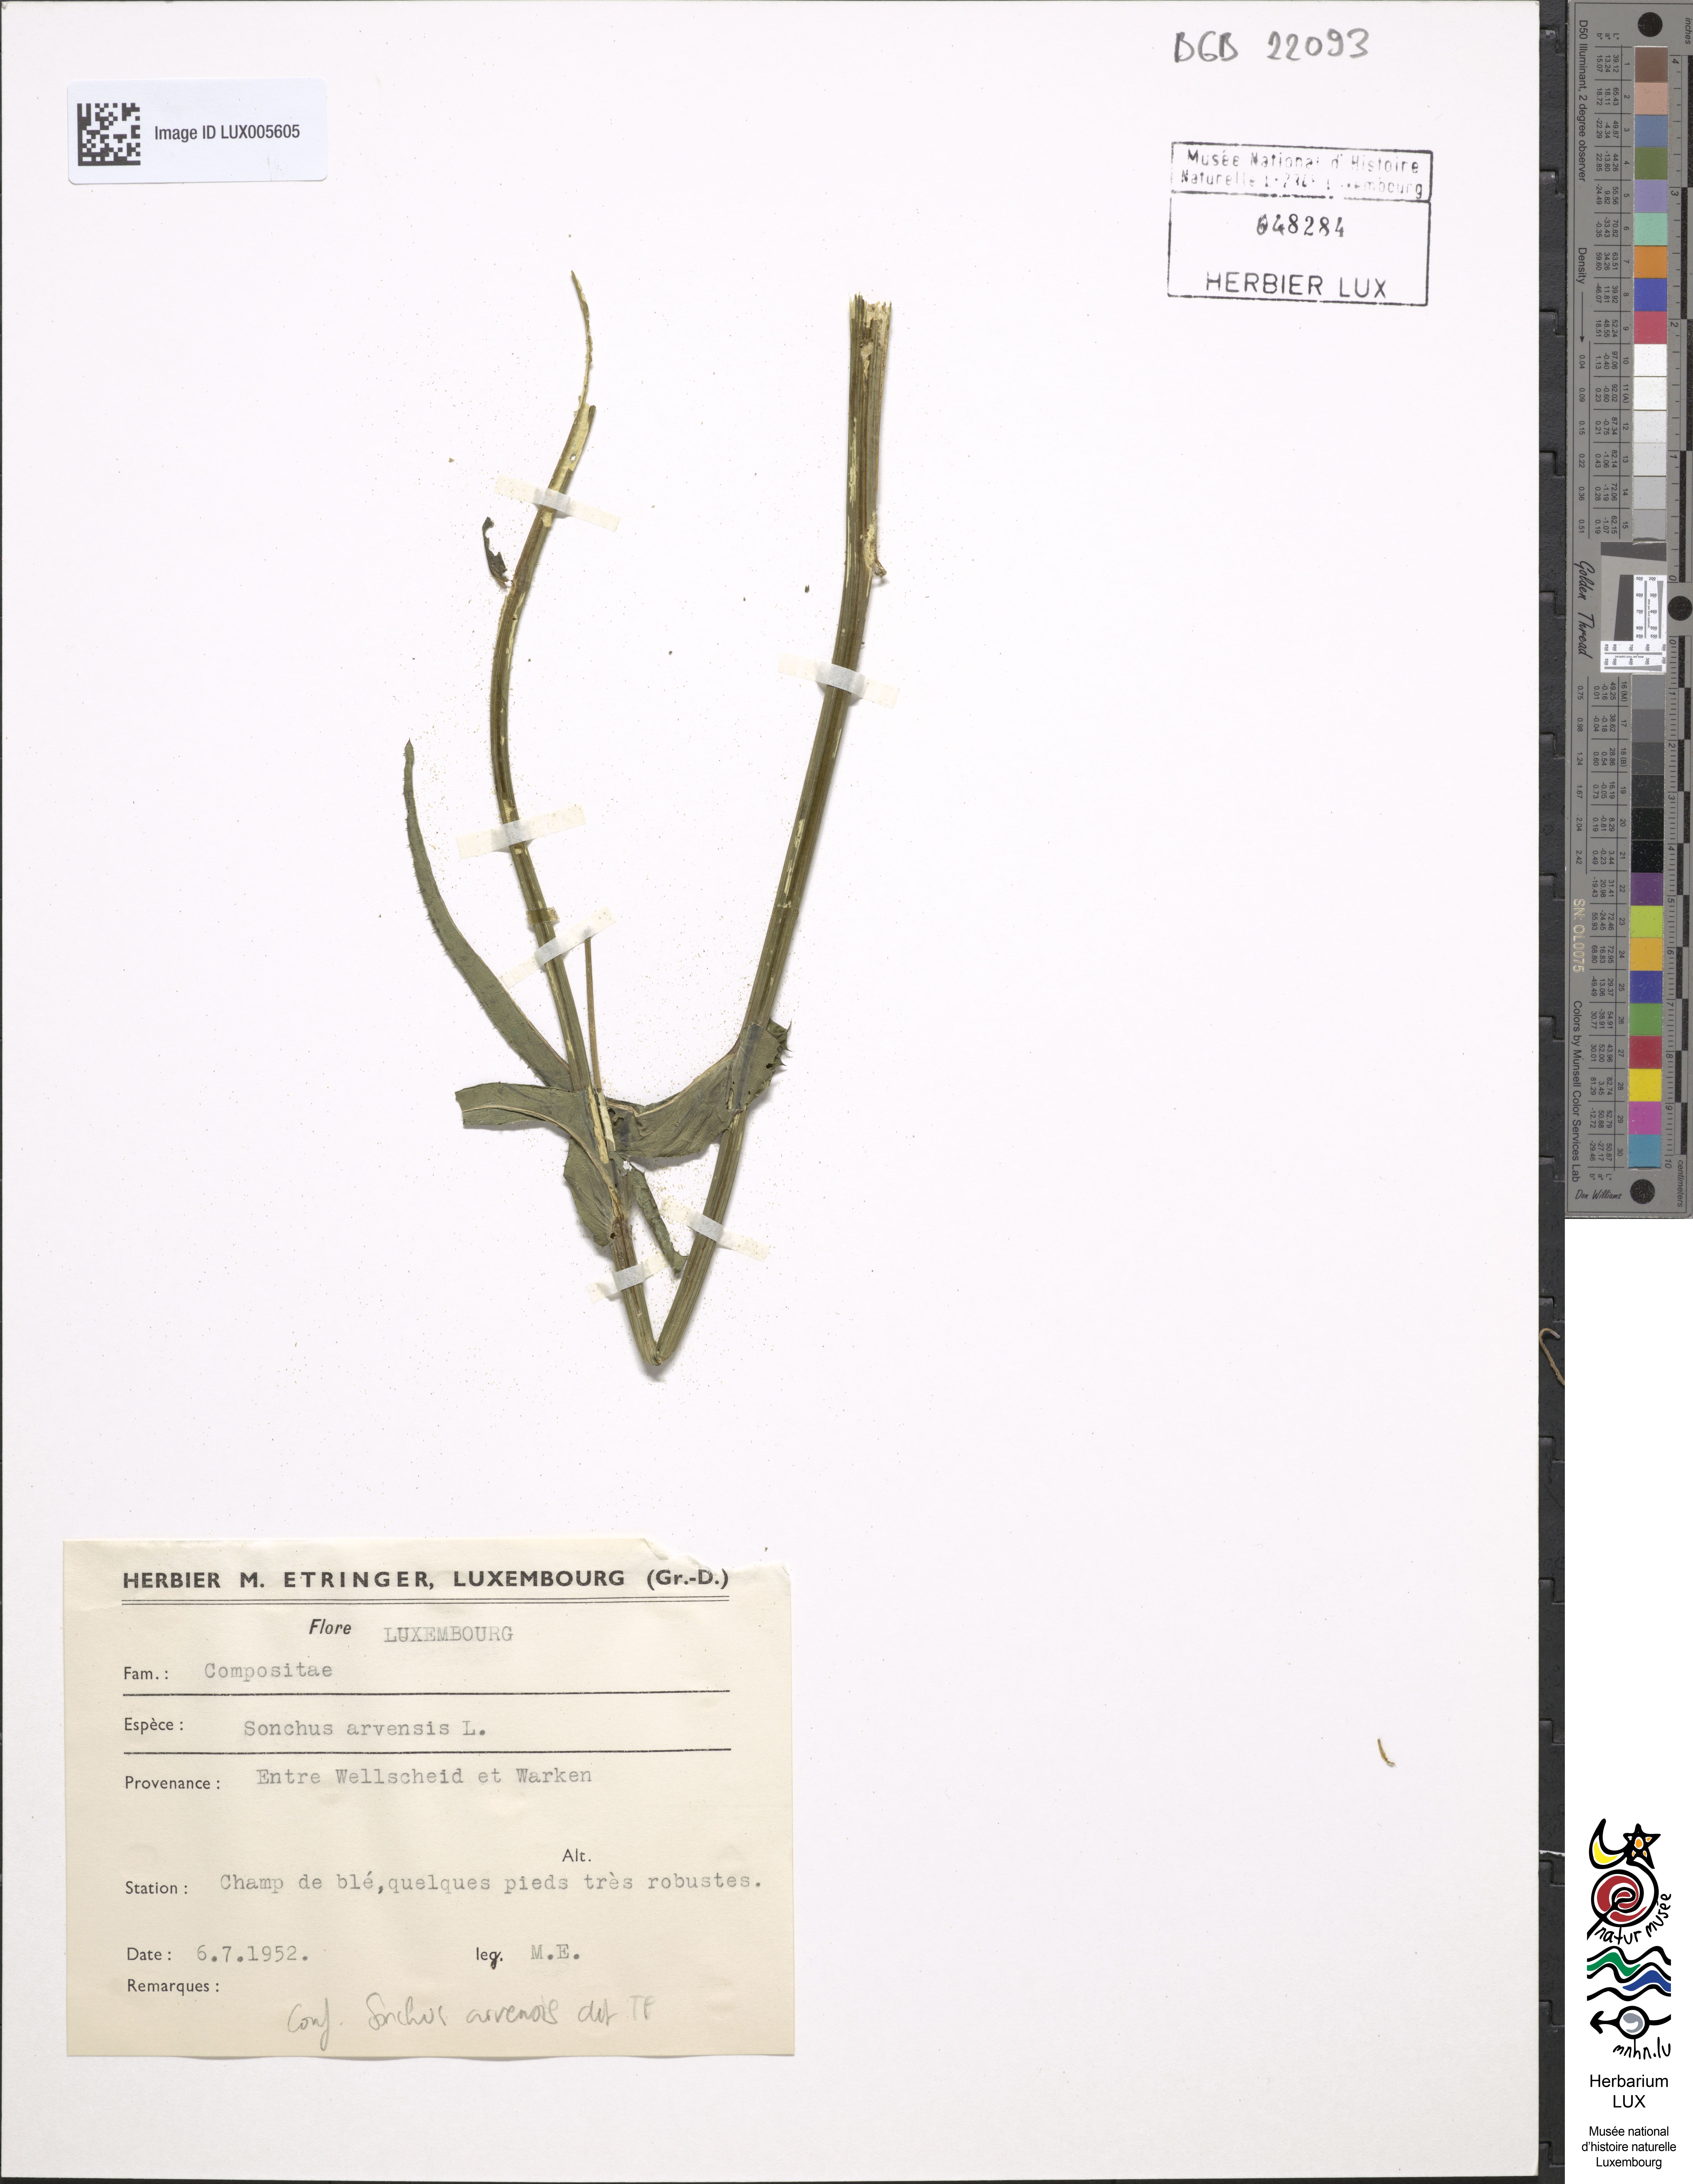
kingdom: Plantae
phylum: Tracheophyta
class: Magnoliopsida
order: Asterales
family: Asteraceae
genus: Sonchus
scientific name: Sonchus arvensis
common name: Perennial sow-thistle
